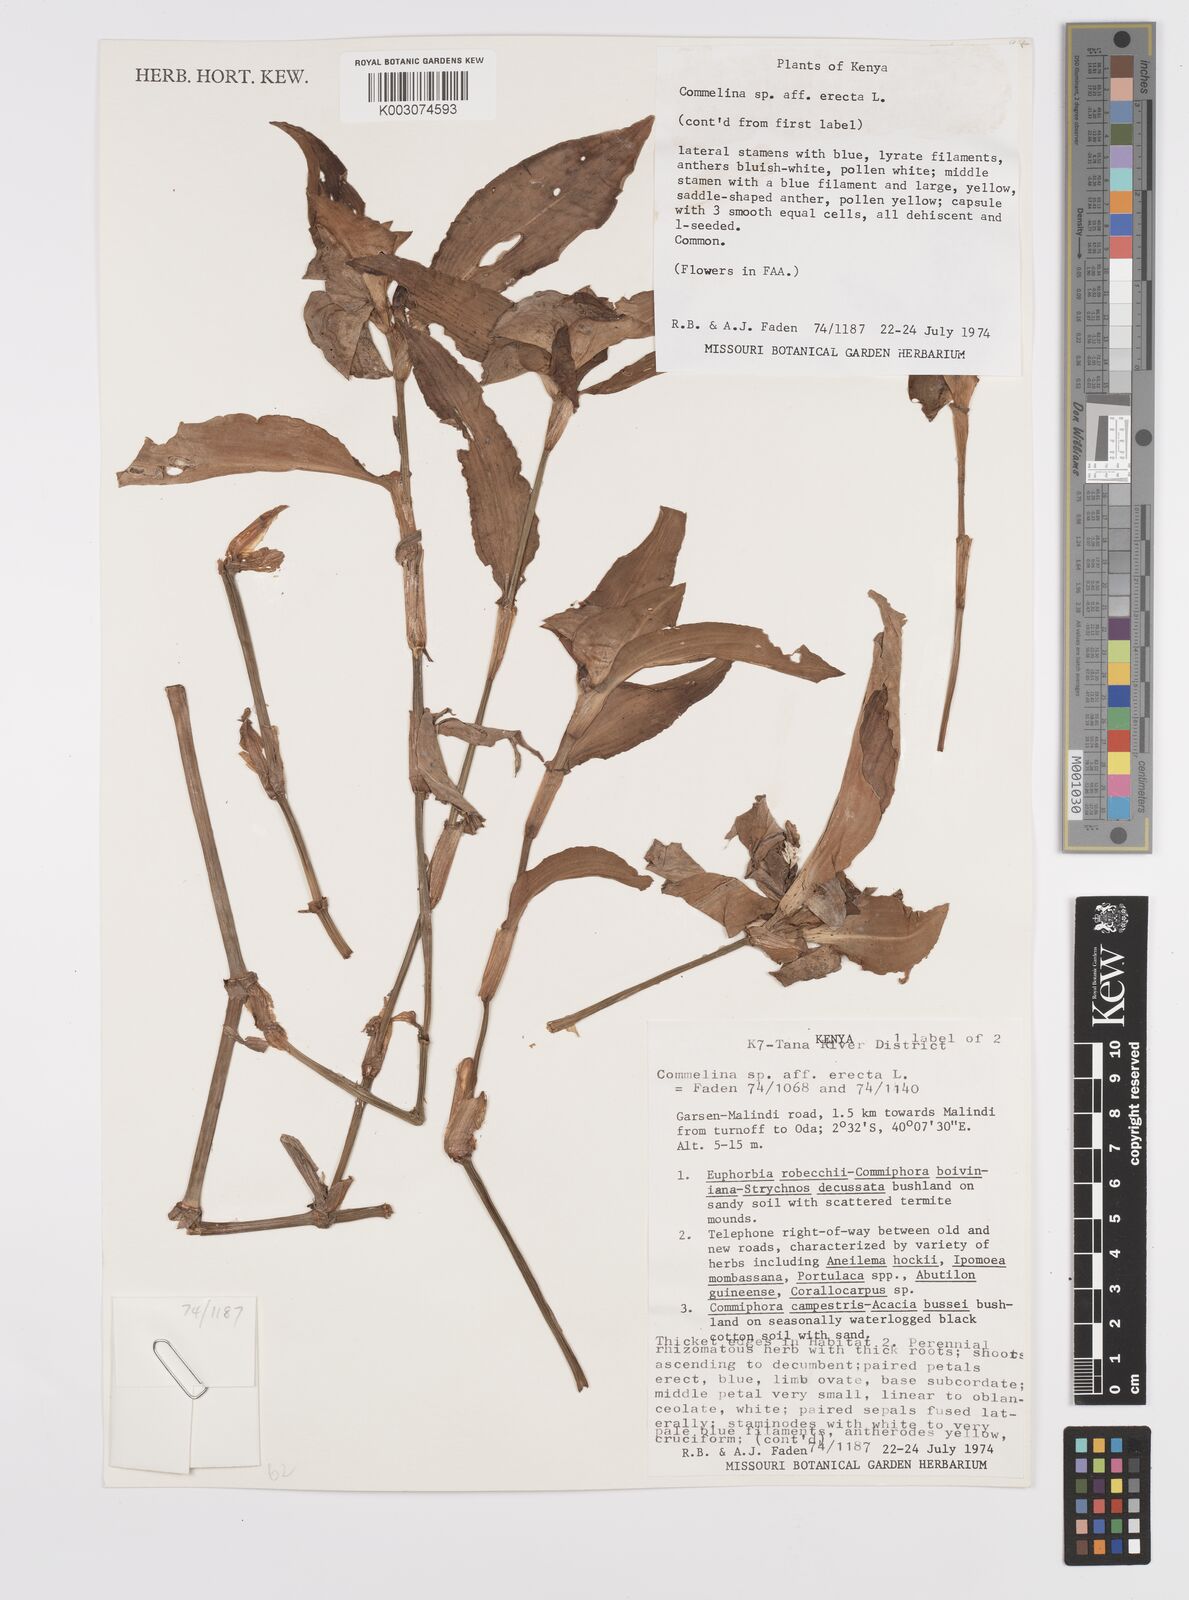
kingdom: Plantae
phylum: Tracheophyta
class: Liliopsida
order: Commelinales
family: Commelinaceae
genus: Commelina
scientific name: Commelina erecta
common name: Blousel blommetjie
